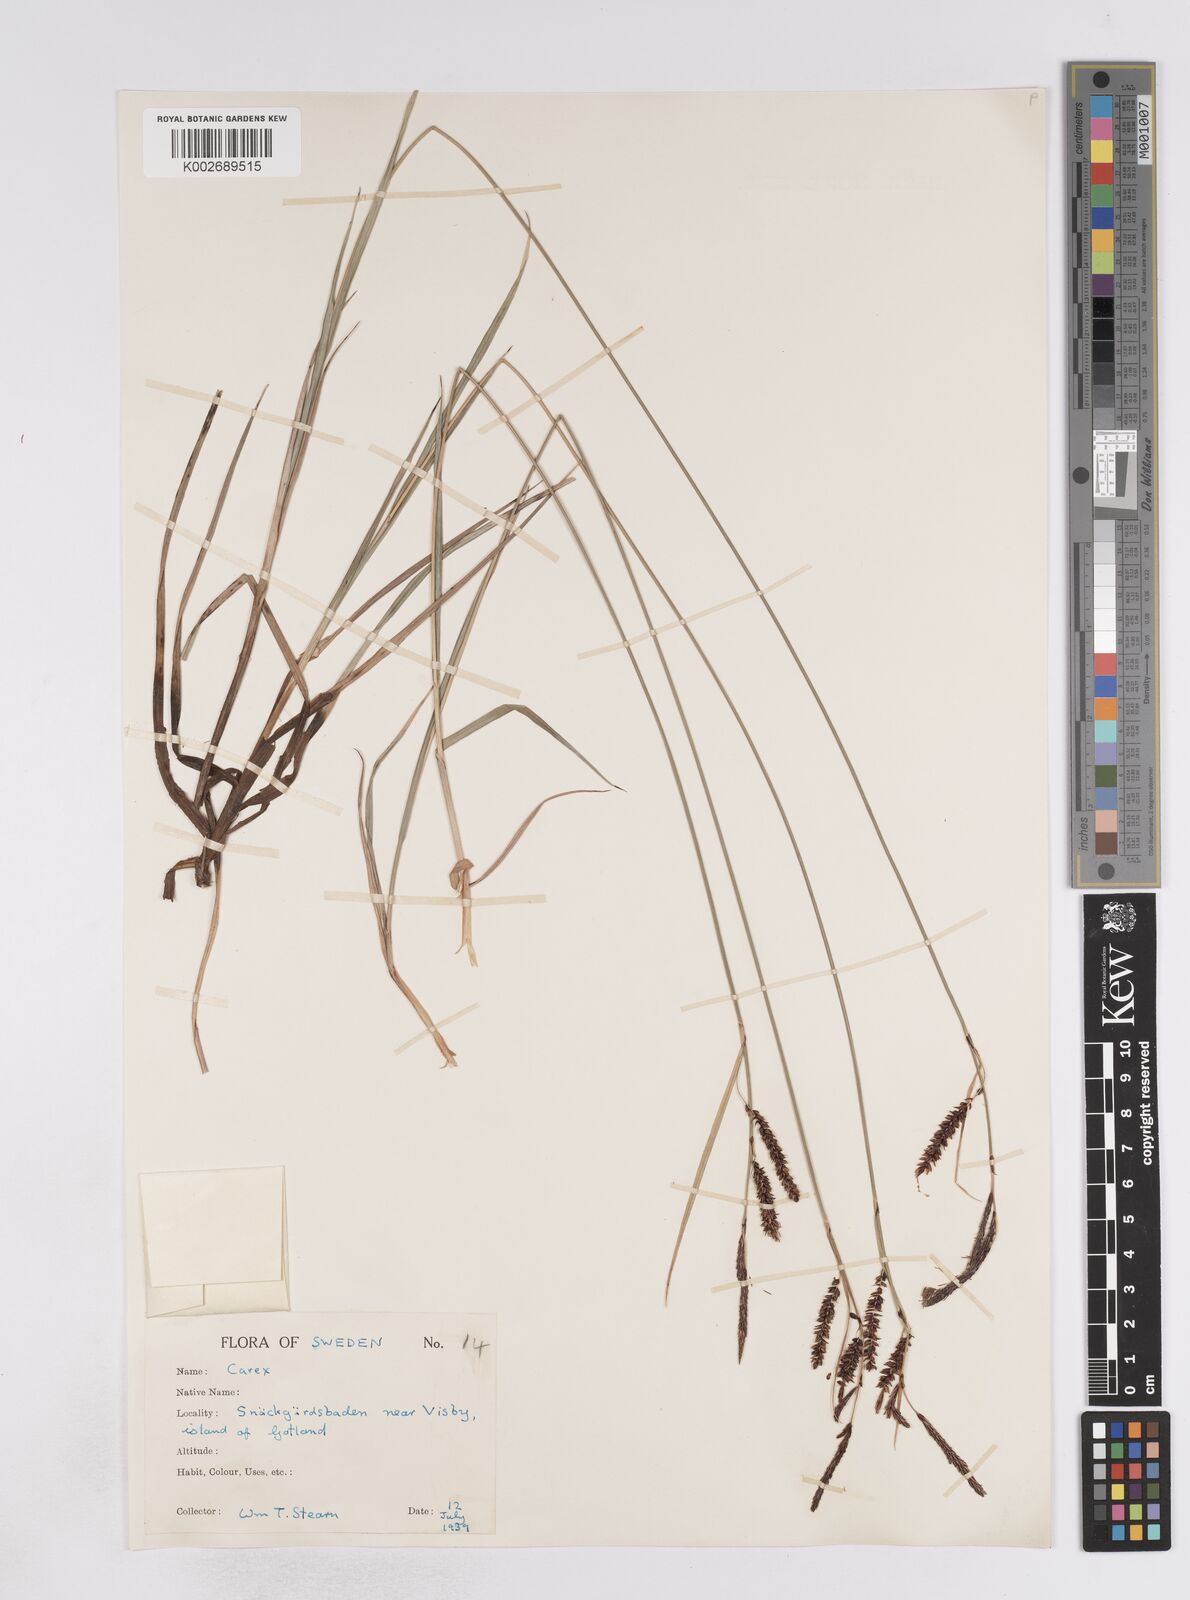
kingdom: Plantae
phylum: Tracheophyta
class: Liliopsida
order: Poales
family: Cyperaceae
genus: Carex
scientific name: Carex flacca
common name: Glaucous sedge
